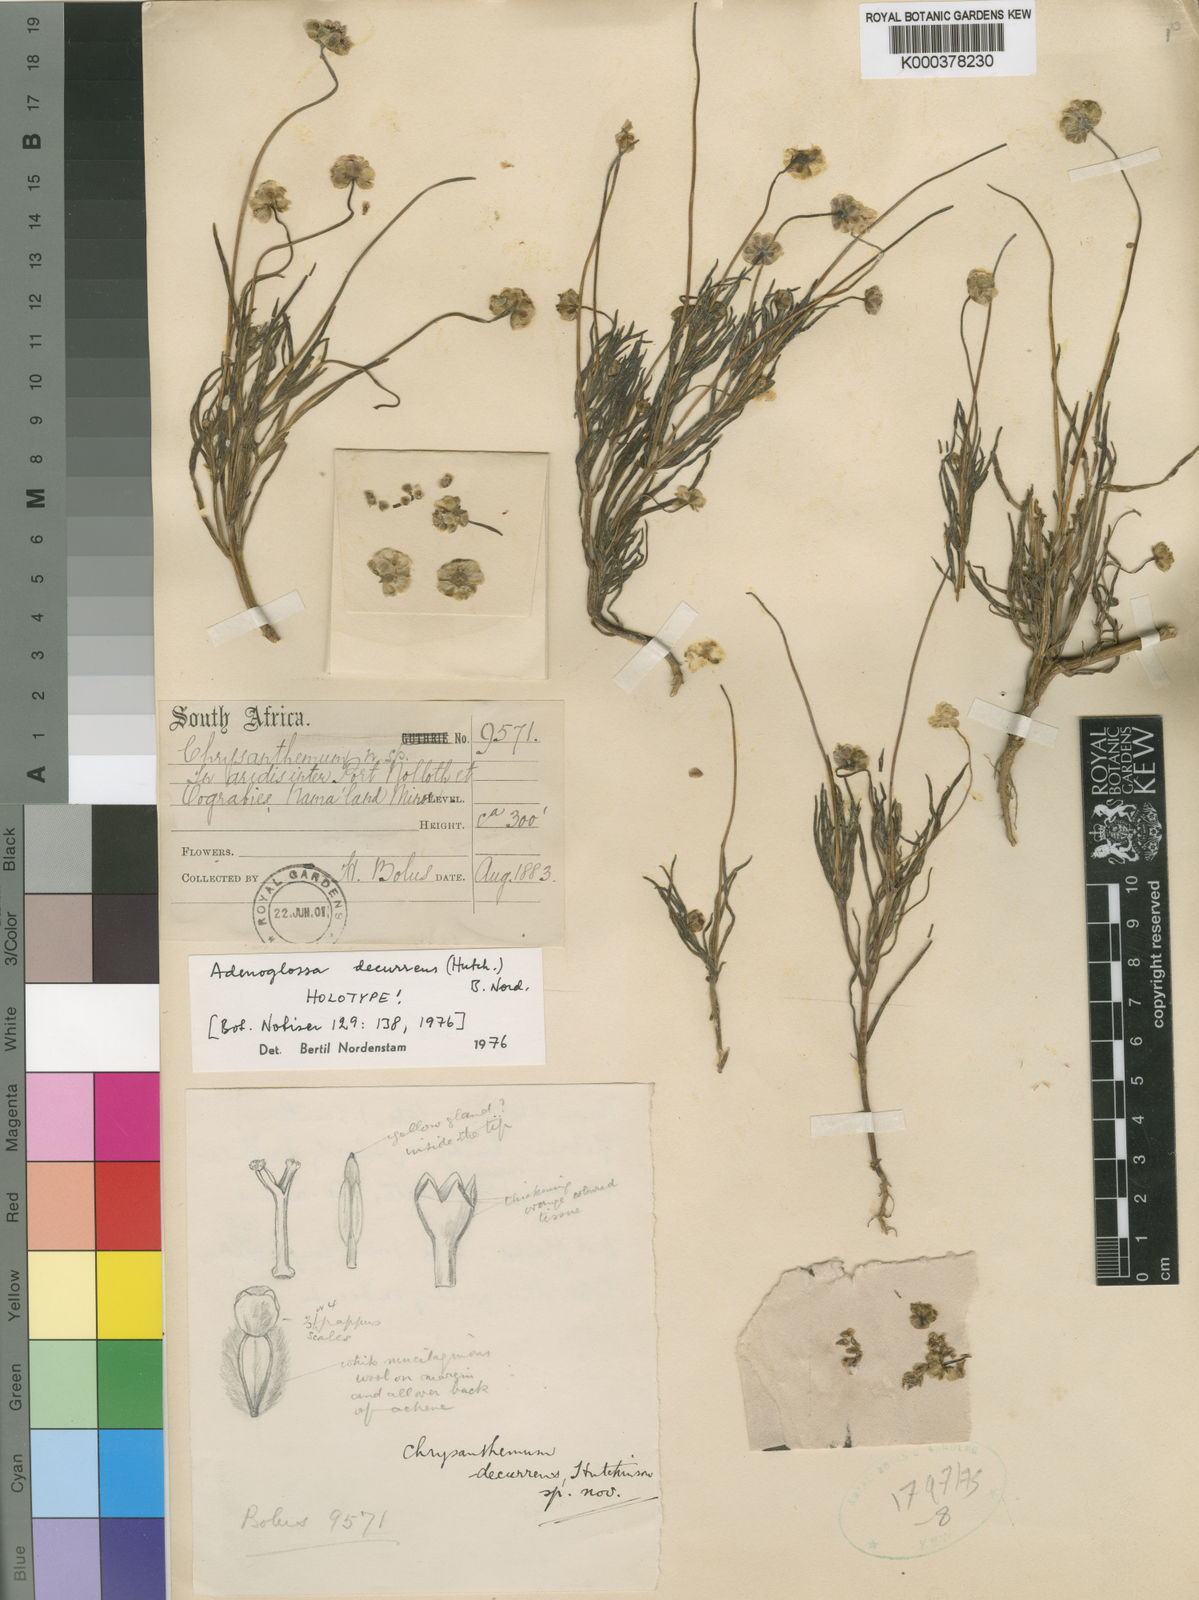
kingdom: Plantae
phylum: Tracheophyta
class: Magnoliopsida
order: Asterales
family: Asteraceae
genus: Adenoglossa
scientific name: Adenoglossa decurrens
